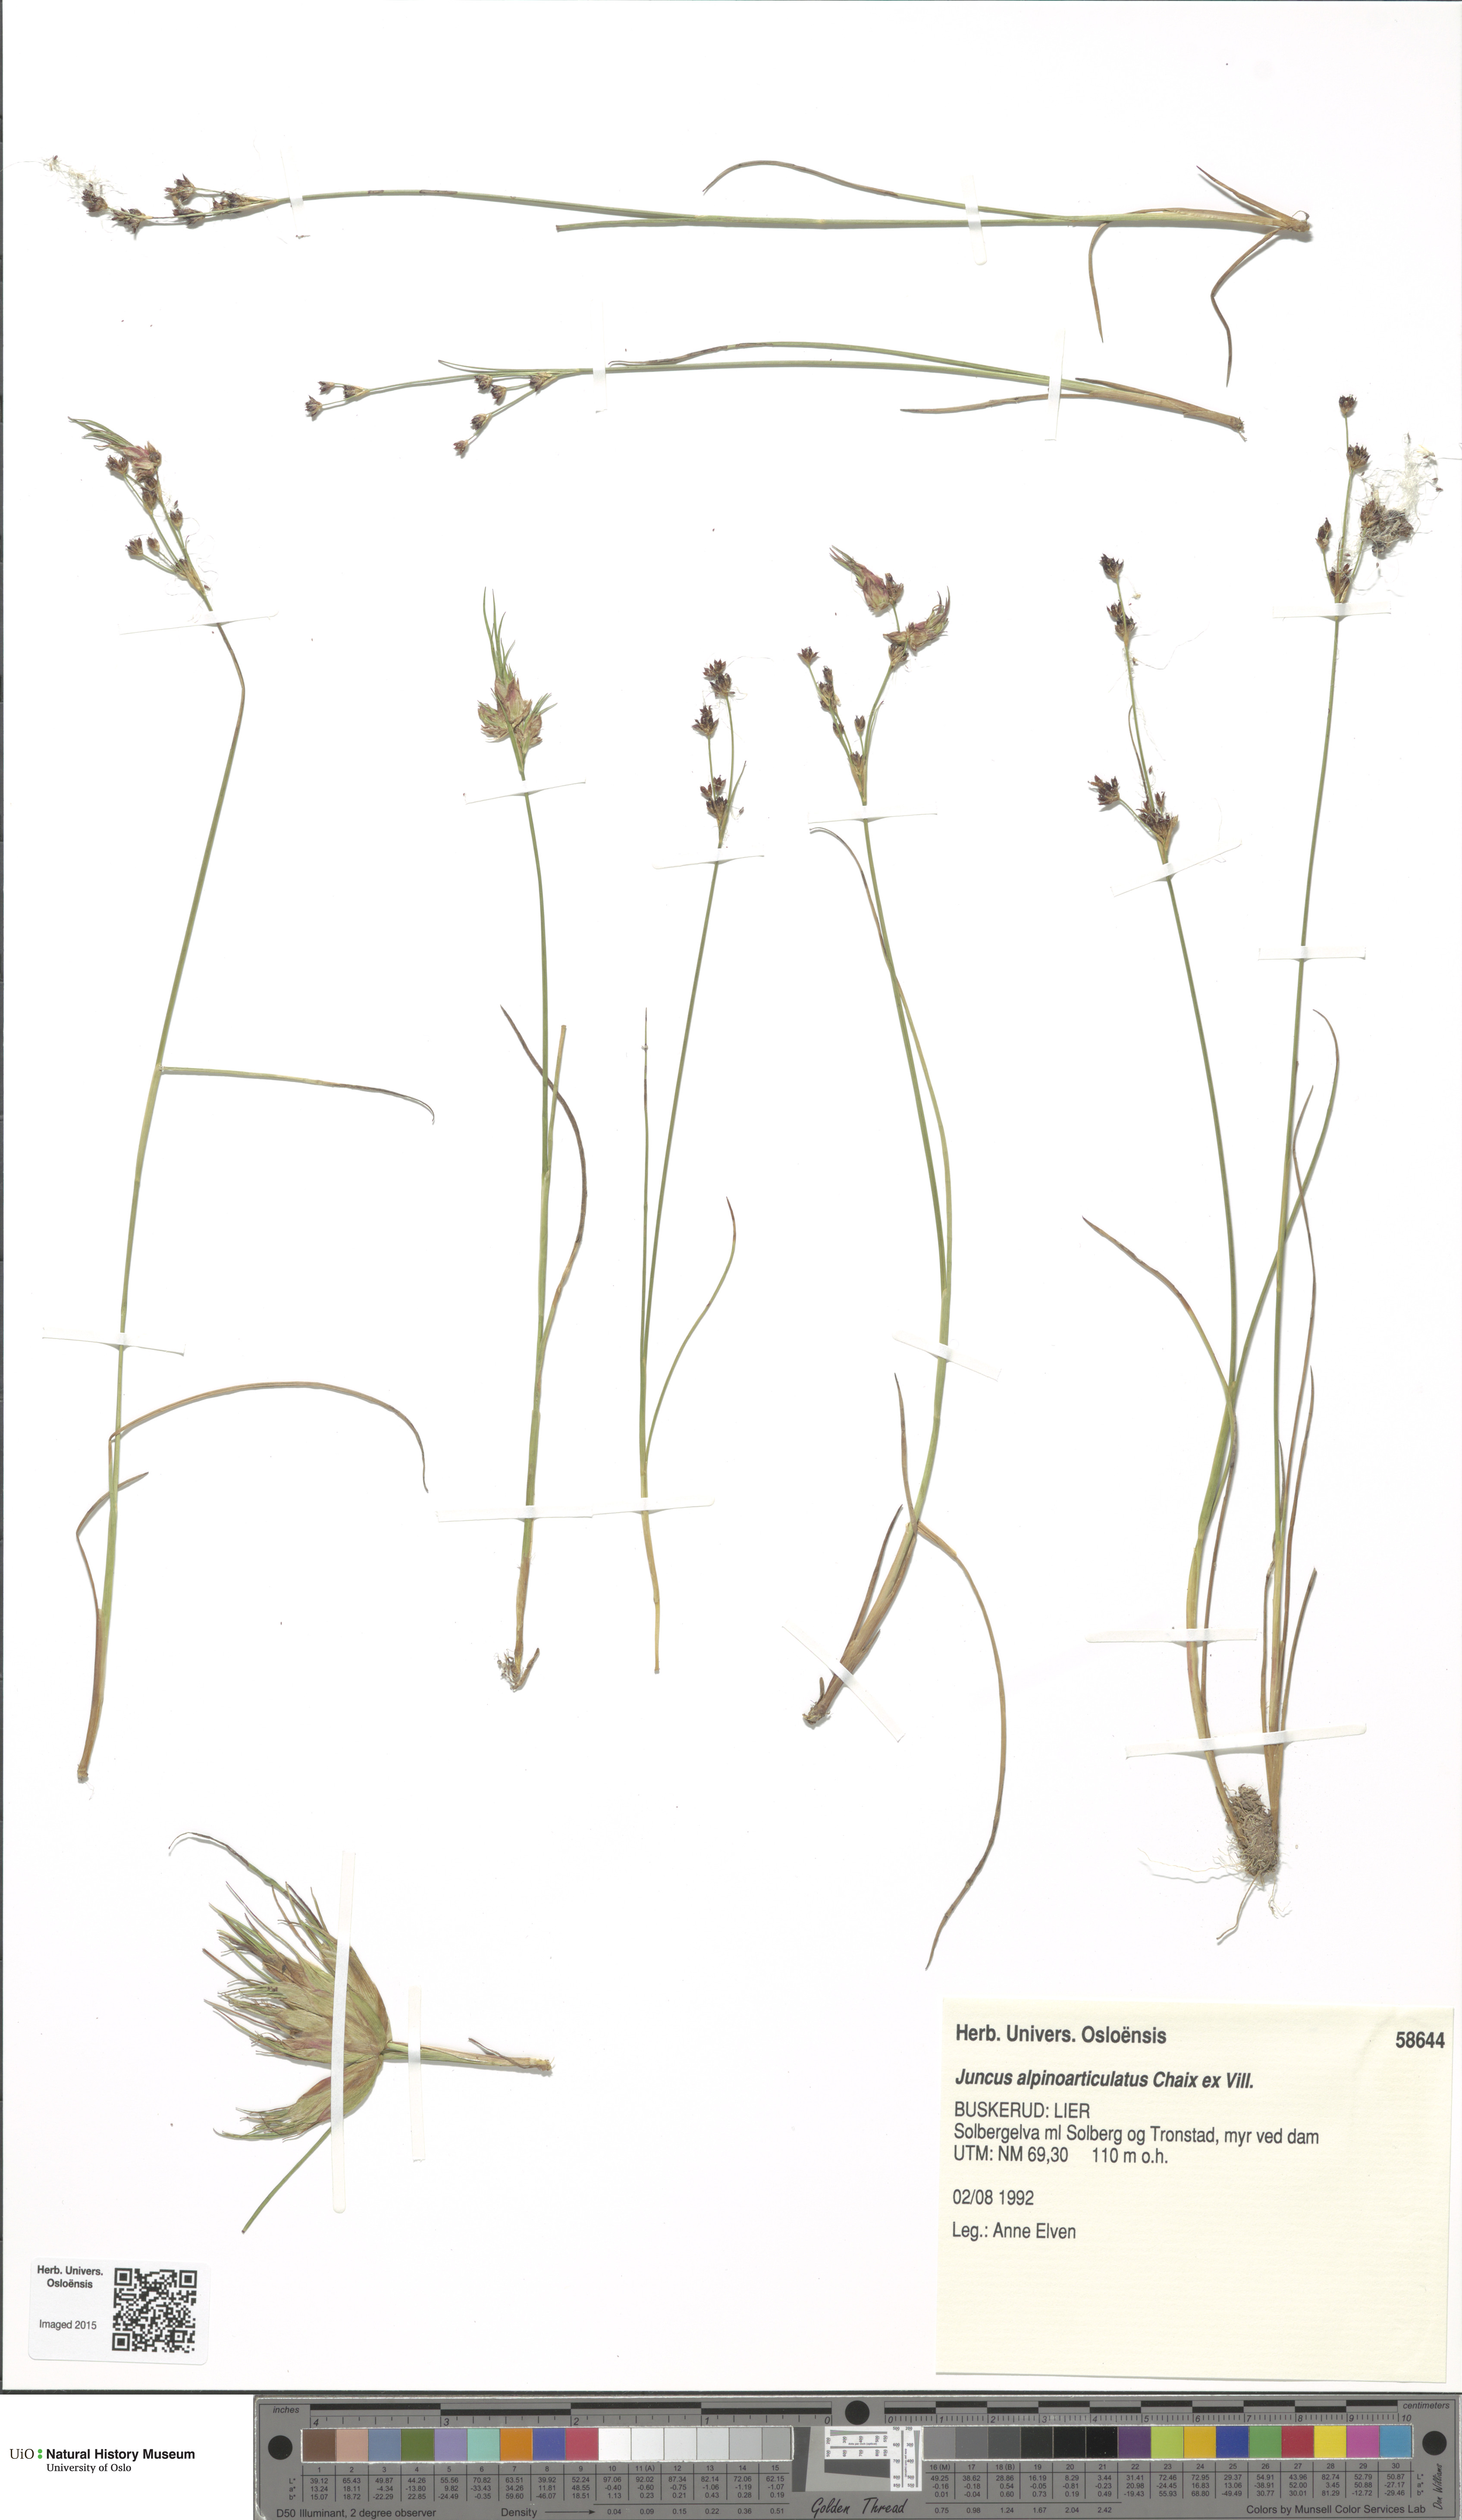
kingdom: Plantae
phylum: Tracheophyta
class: Liliopsida
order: Poales
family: Juncaceae
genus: Juncus
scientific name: Juncus alpinoarticulatus
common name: Alpine rush
